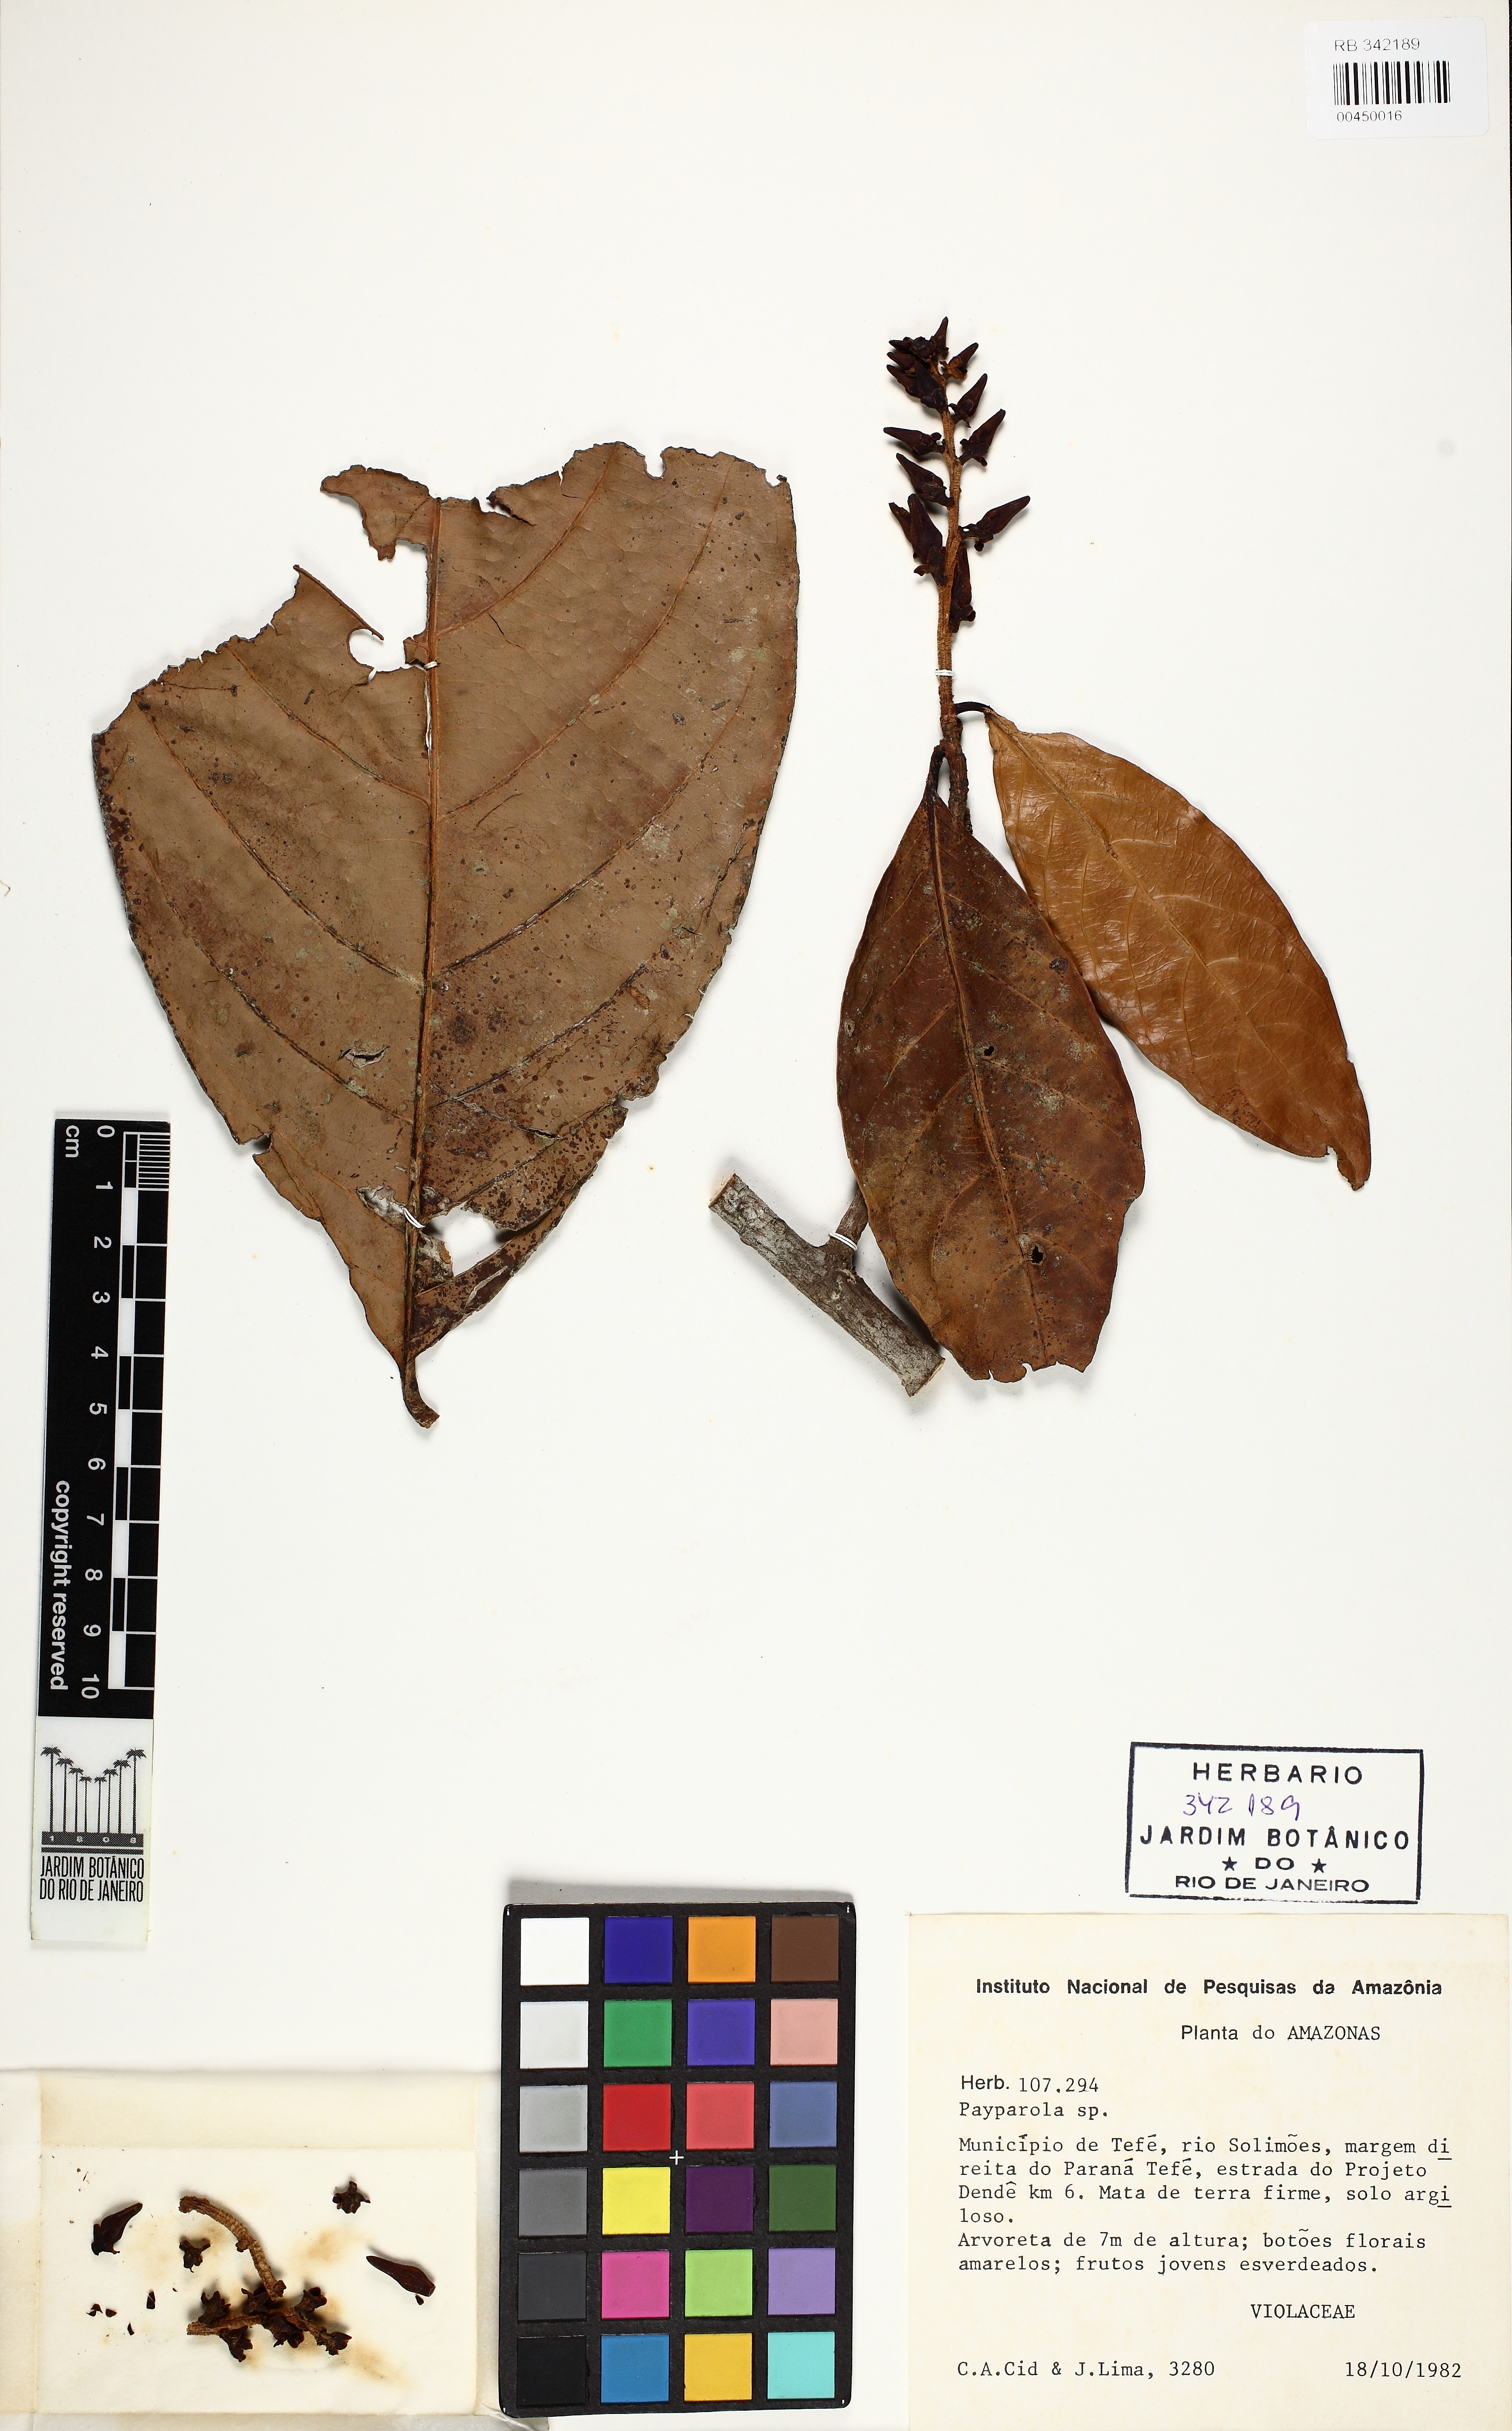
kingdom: Plantae
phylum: Tracheophyta
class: Magnoliopsida
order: Malpighiales
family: Violaceae
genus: Paypayrola
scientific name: Paypayrola grandiflora
